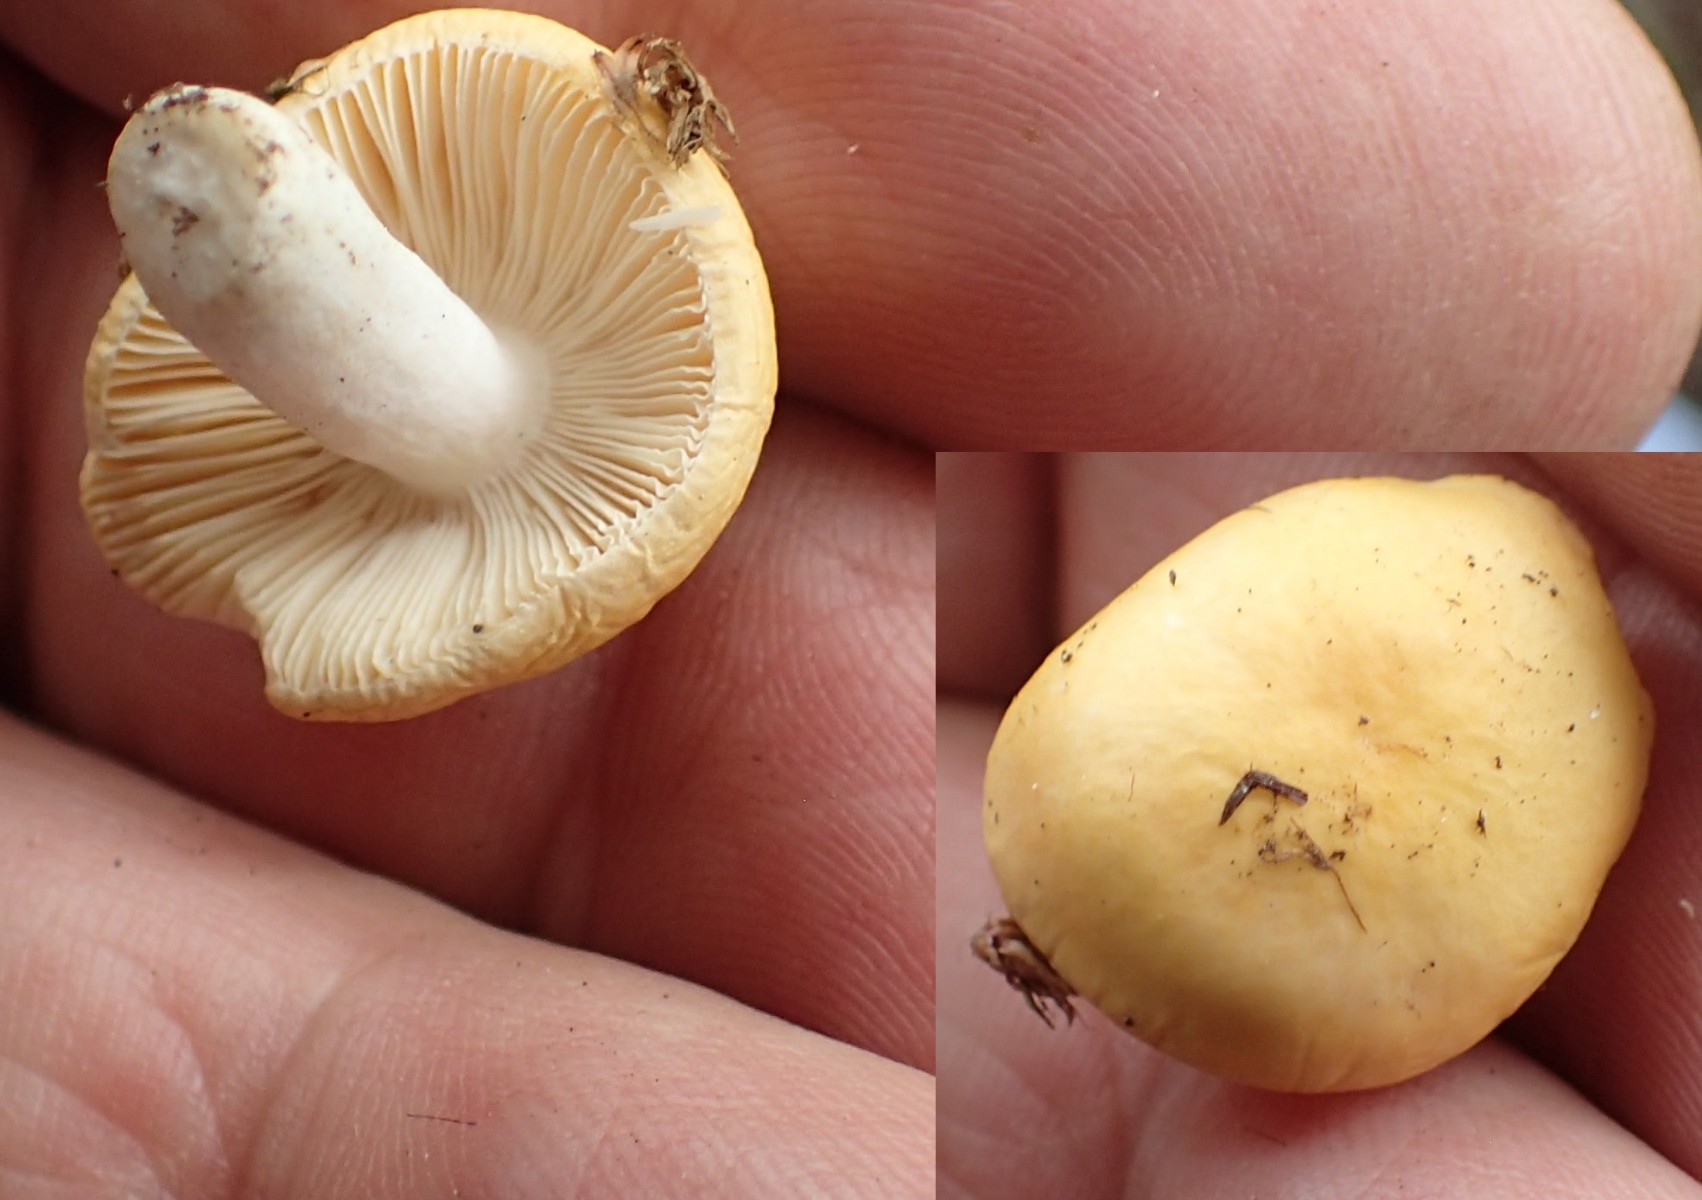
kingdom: Fungi
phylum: Basidiomycota
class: Agaricomycetes
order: Russulales
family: Russulaceae
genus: Russula
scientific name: Russula
